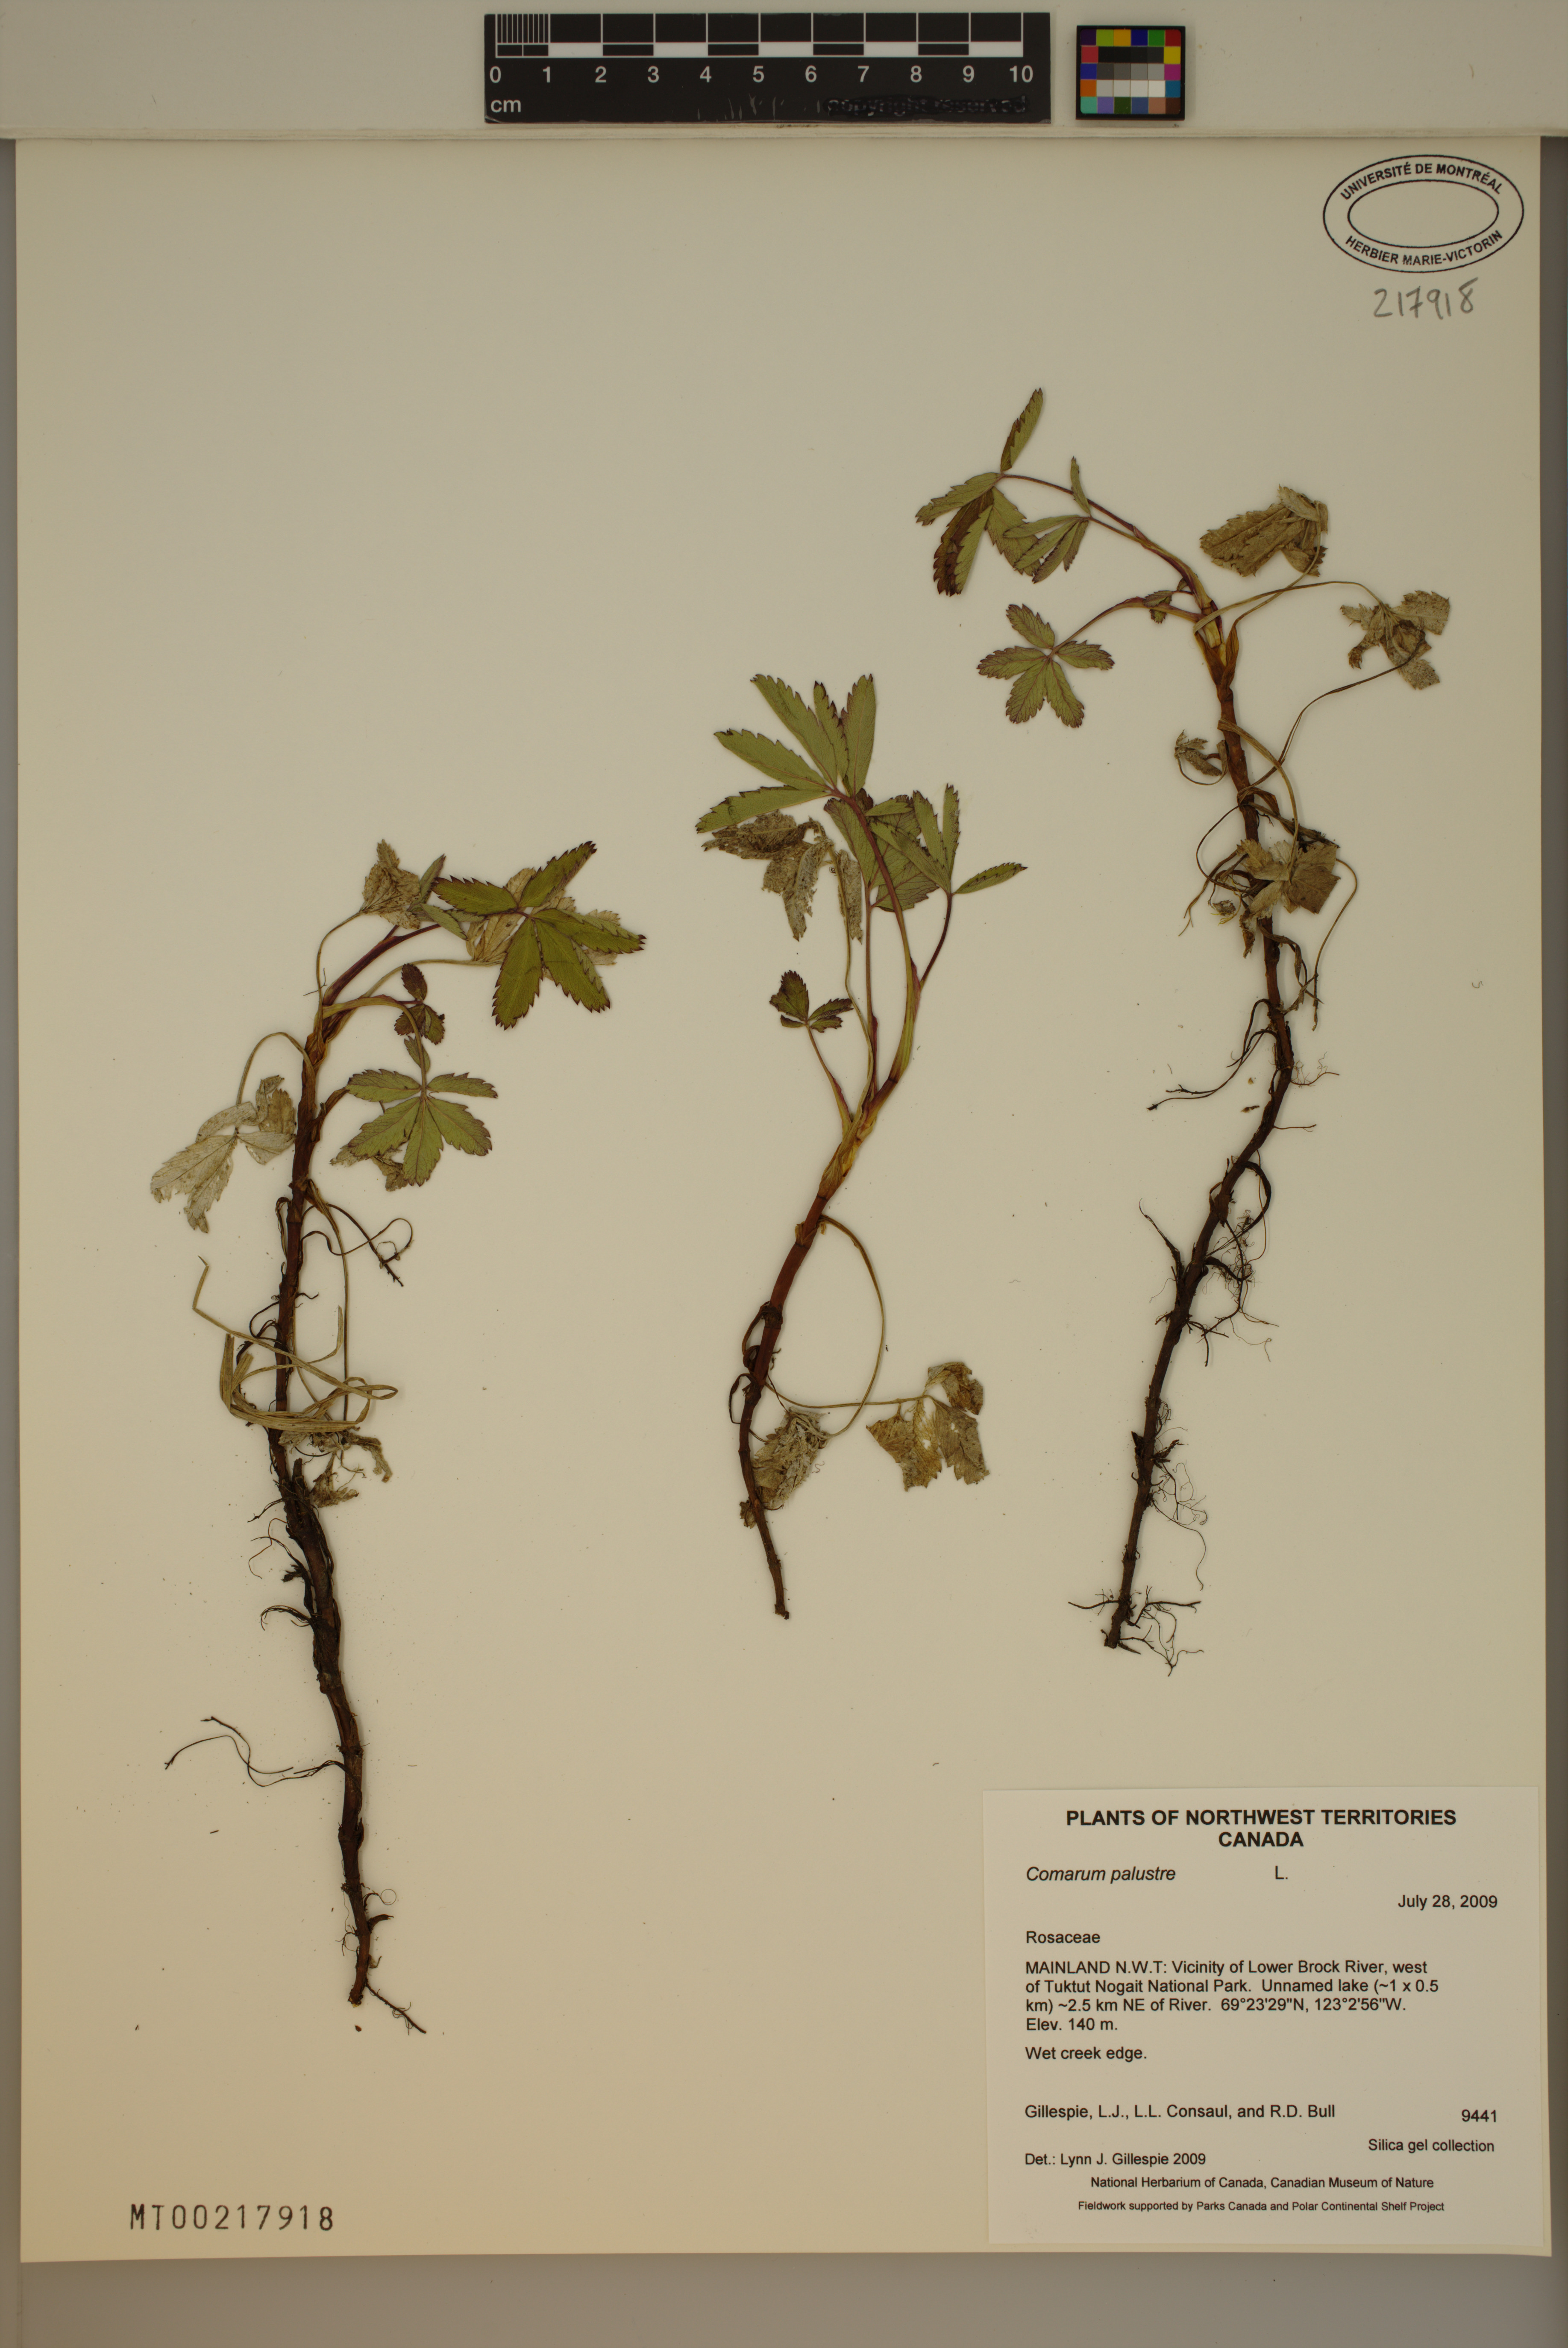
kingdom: Plantae
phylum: Tracheophyta
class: Magnoliopsida
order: Rosales
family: Rosaceae
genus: Comarum
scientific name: Comarum palustre
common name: Marsh cinquefoil
